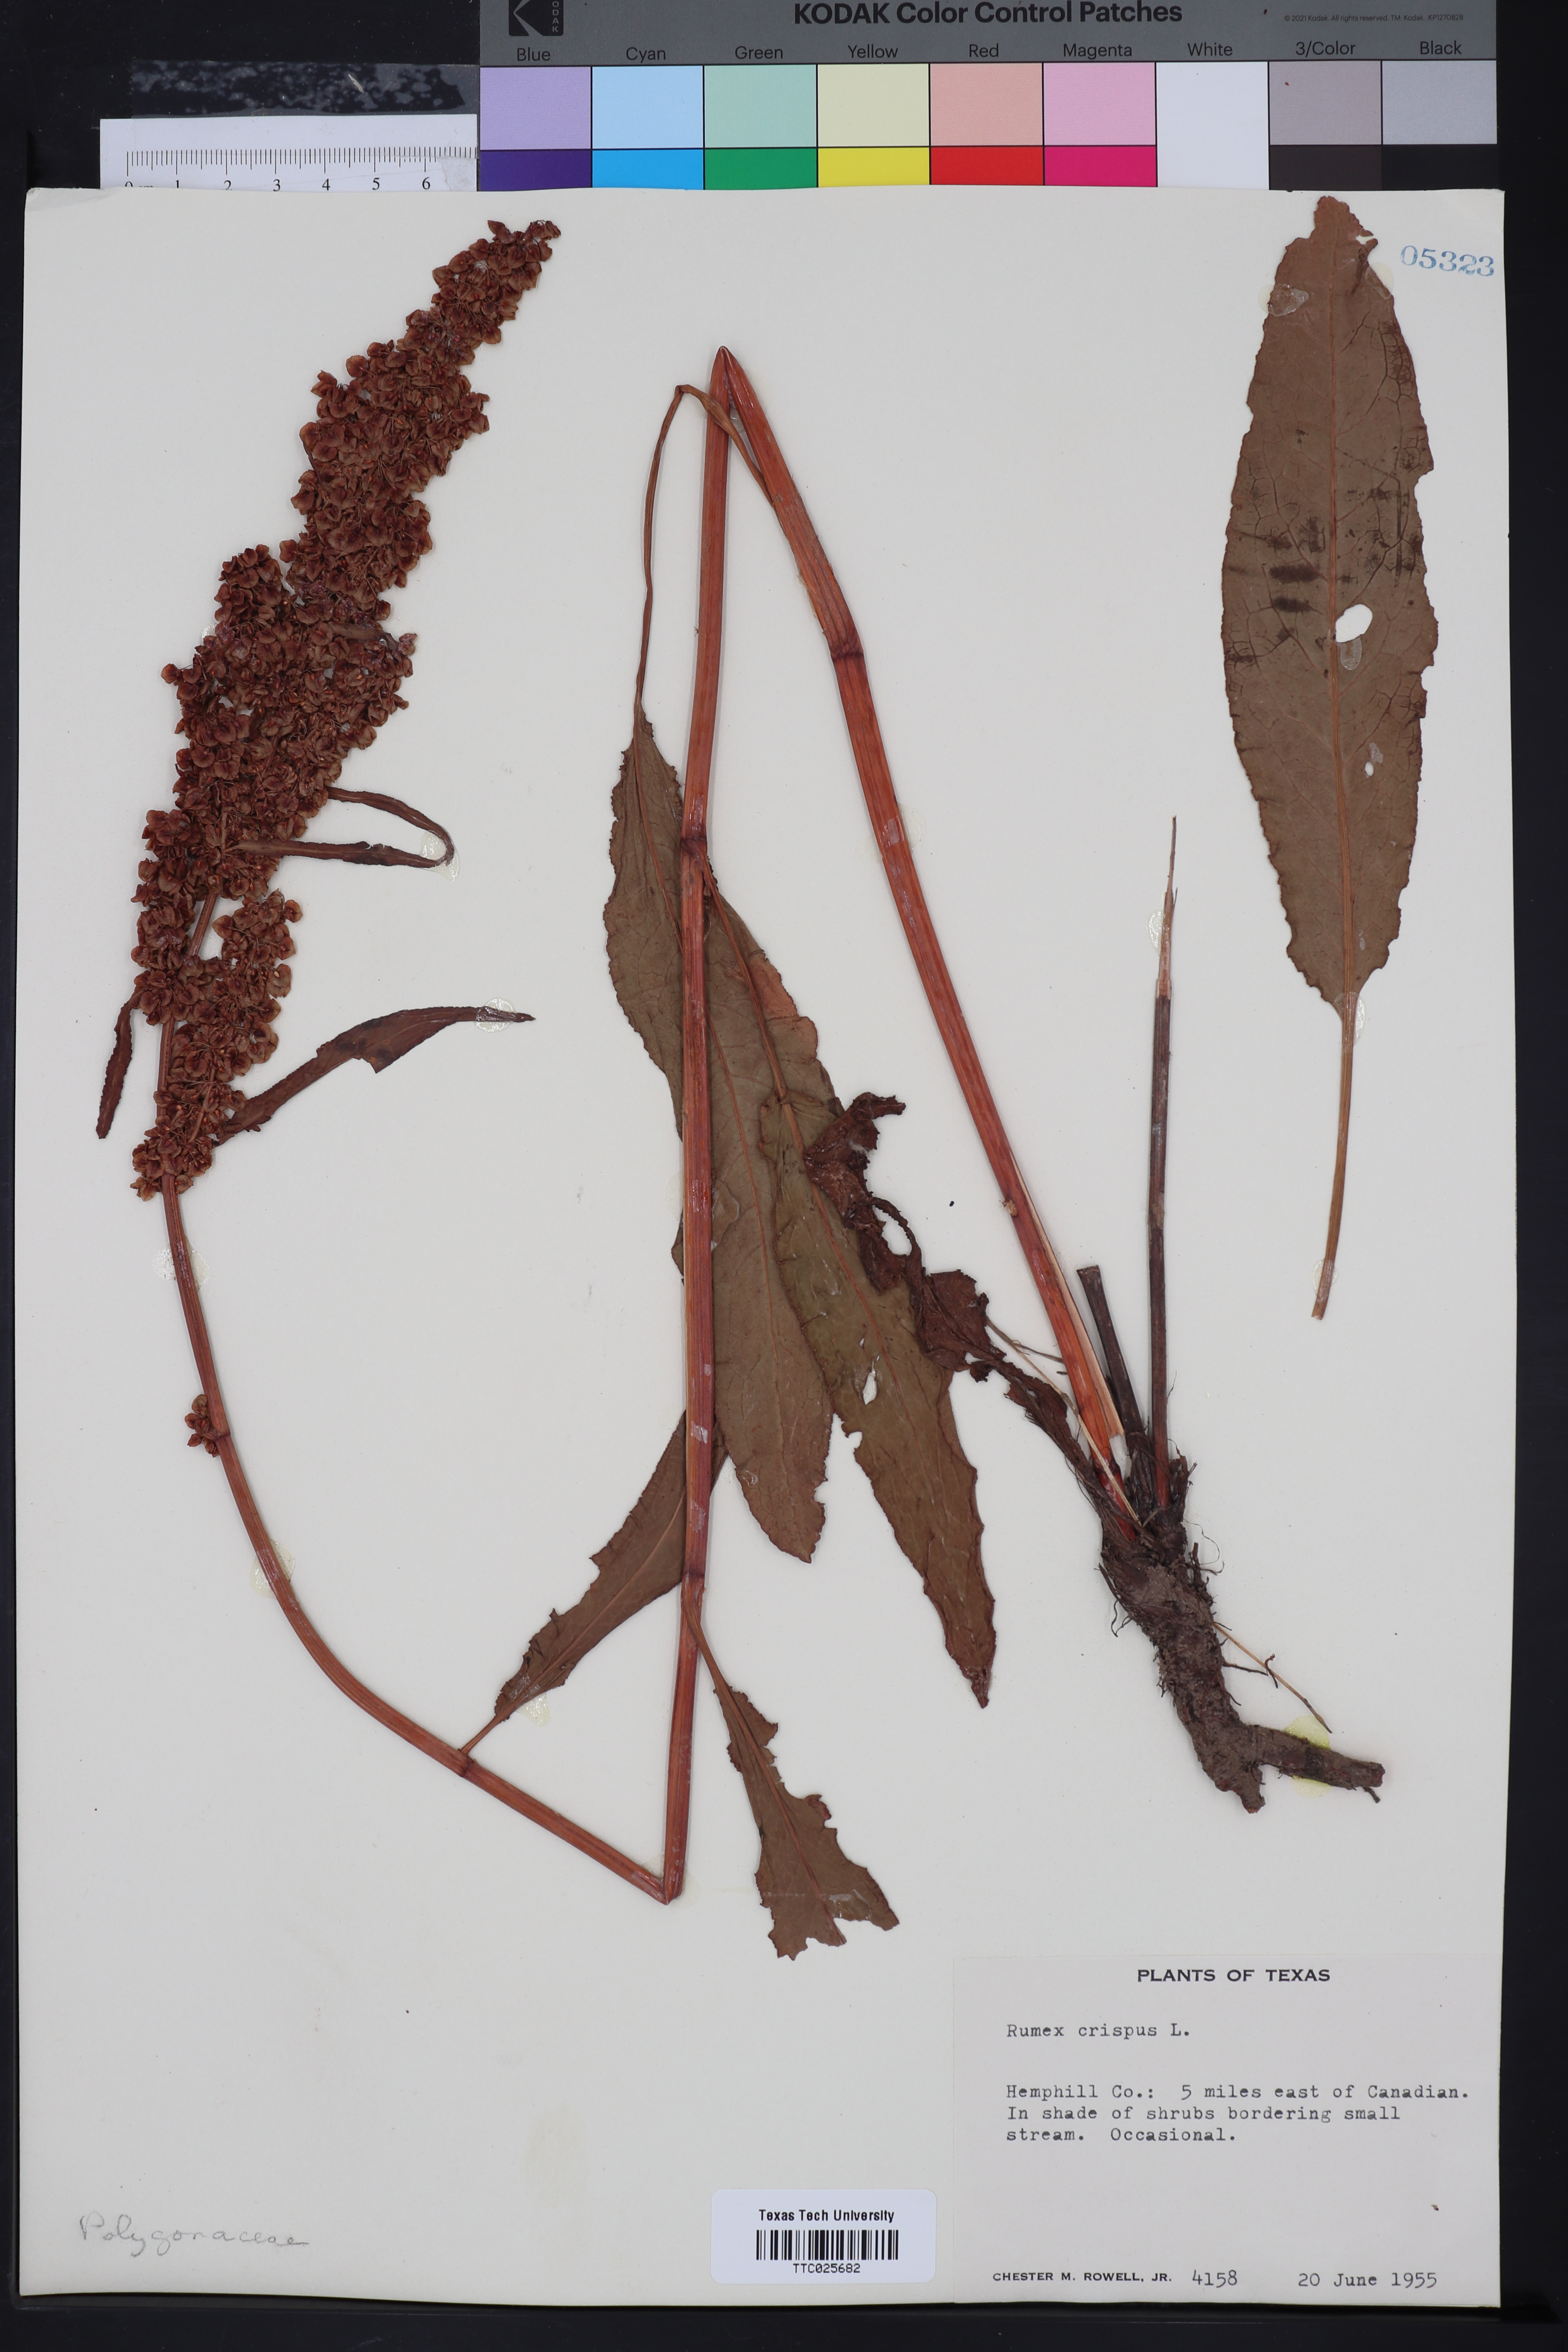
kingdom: Plantae
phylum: Tracheophyta
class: Magnoliopsida
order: Caryophyllales
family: Polygonaceae
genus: Rumex
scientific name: Rumex crispus
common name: Curled dock
